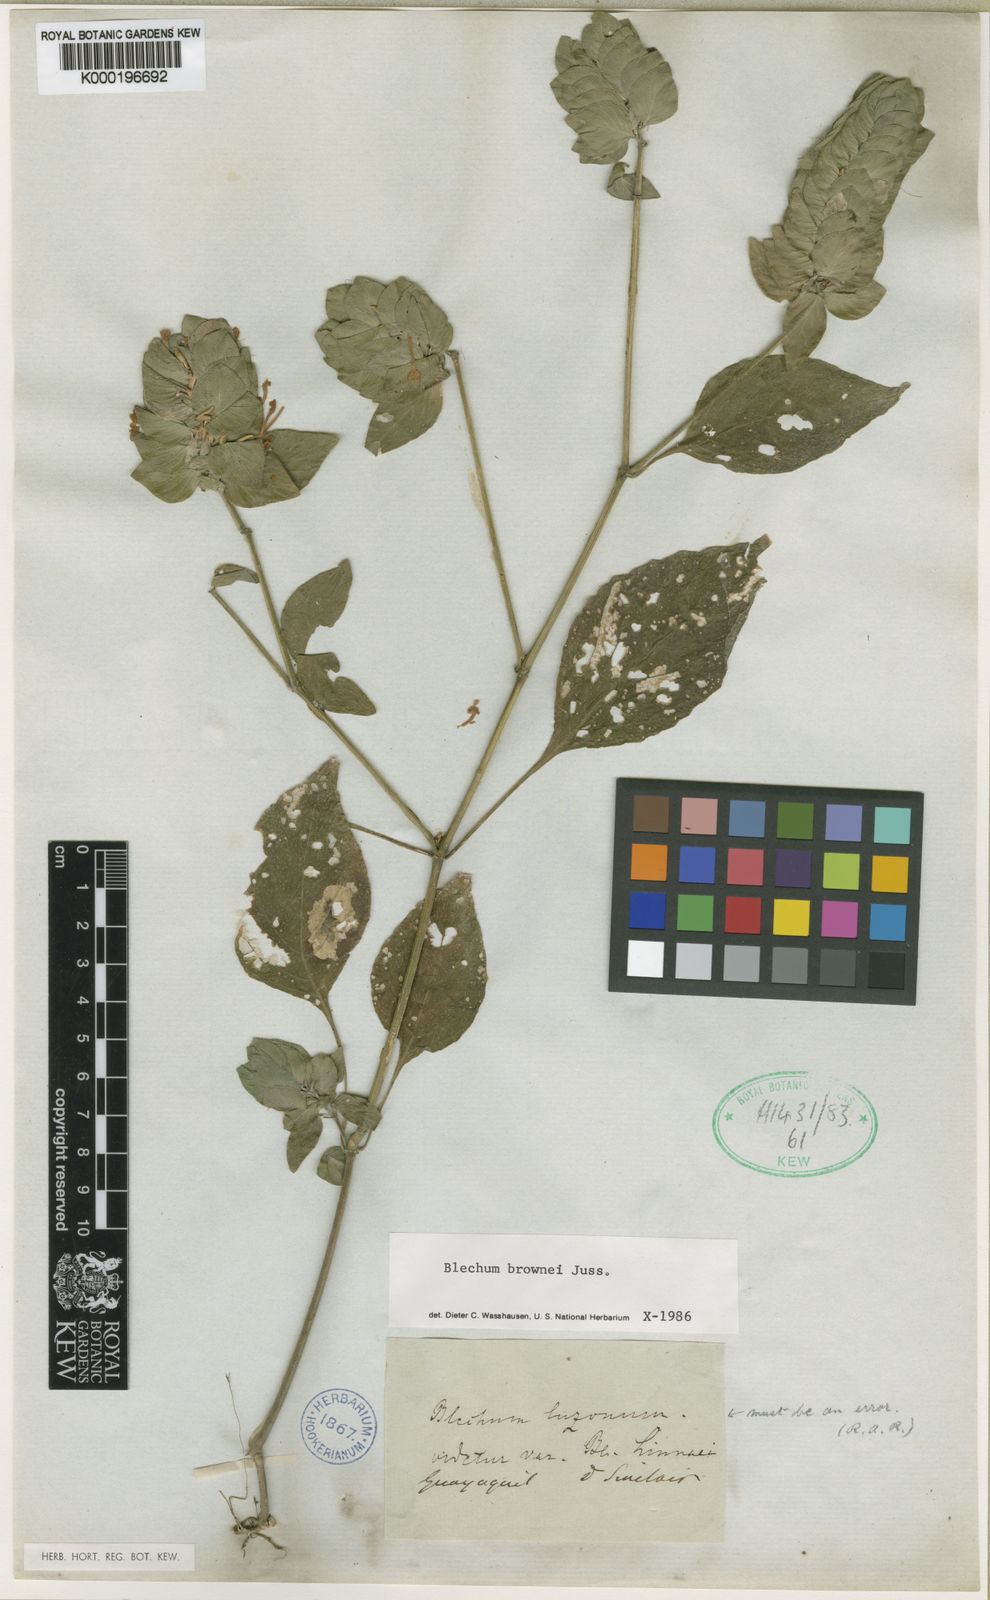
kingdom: Plantae
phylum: Tracheophyta
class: Magnoliopsida
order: Lamiales
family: Acanthaceae
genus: Ruellia
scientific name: Ruellia blechum
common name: Browne's blechum
